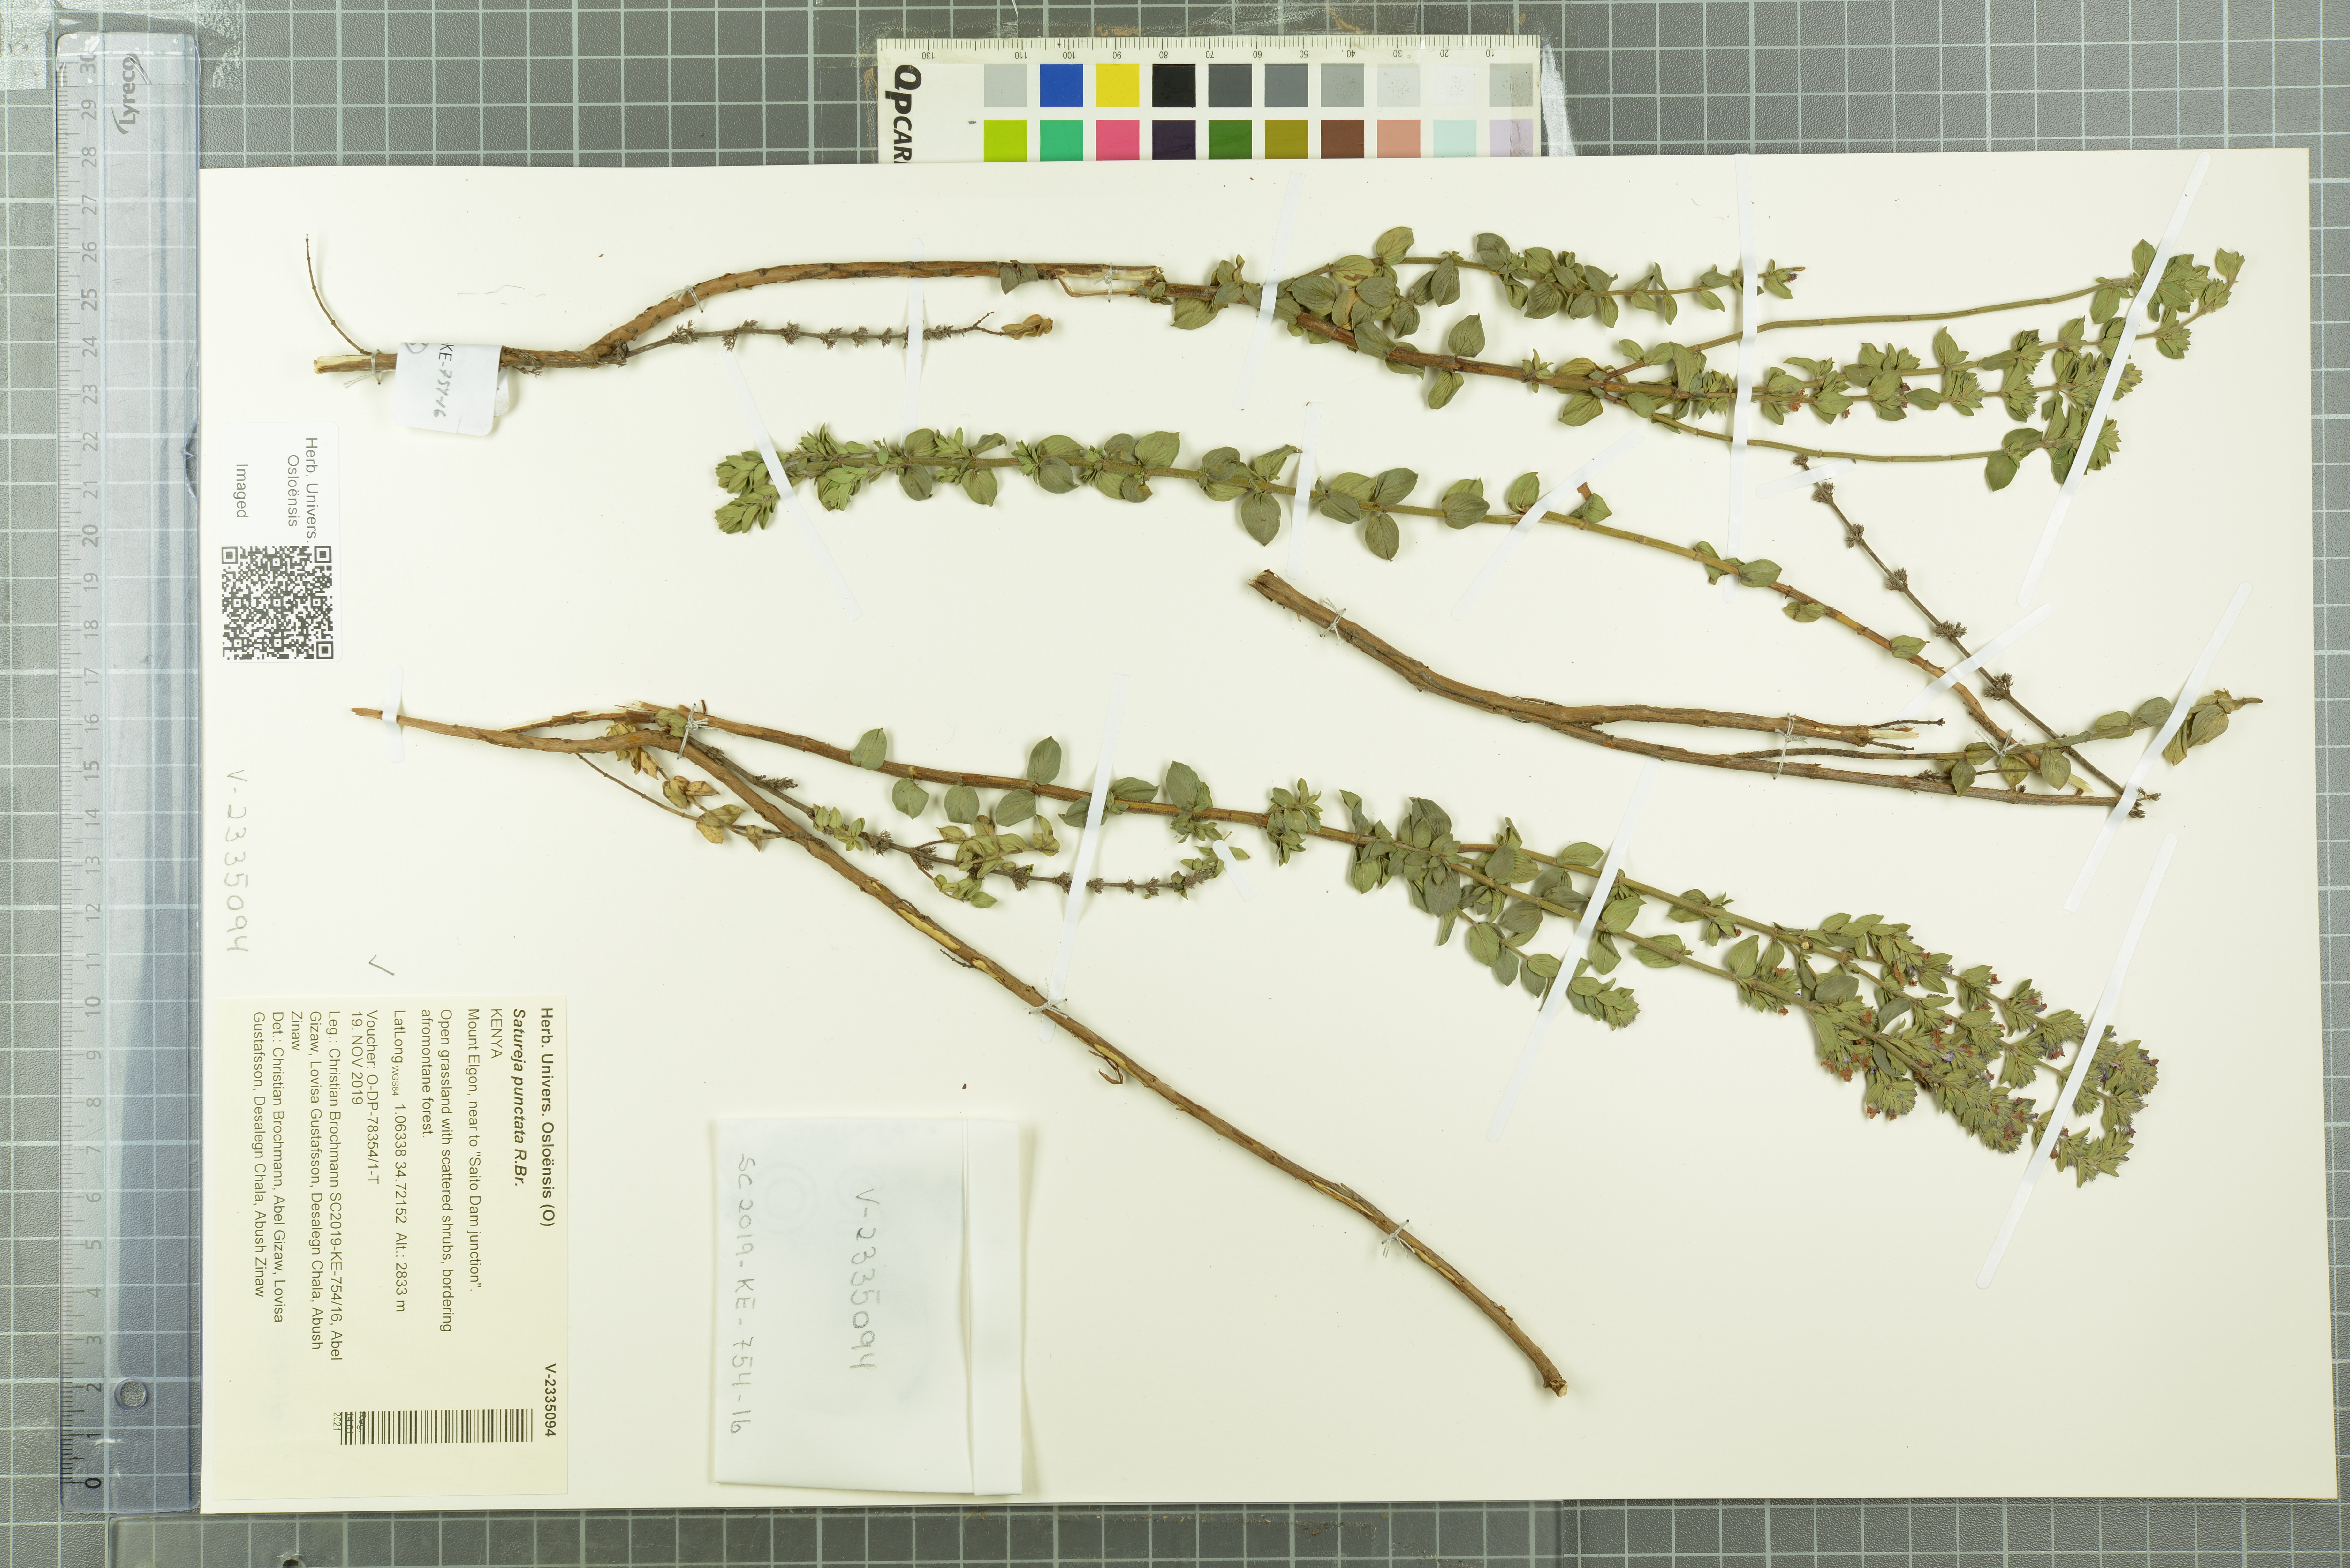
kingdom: Plantae
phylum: Tracheophyta
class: Magnoliopsida
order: Lamiales
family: Lamiaceae
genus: Micromeria
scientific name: Micromeria imbricata
